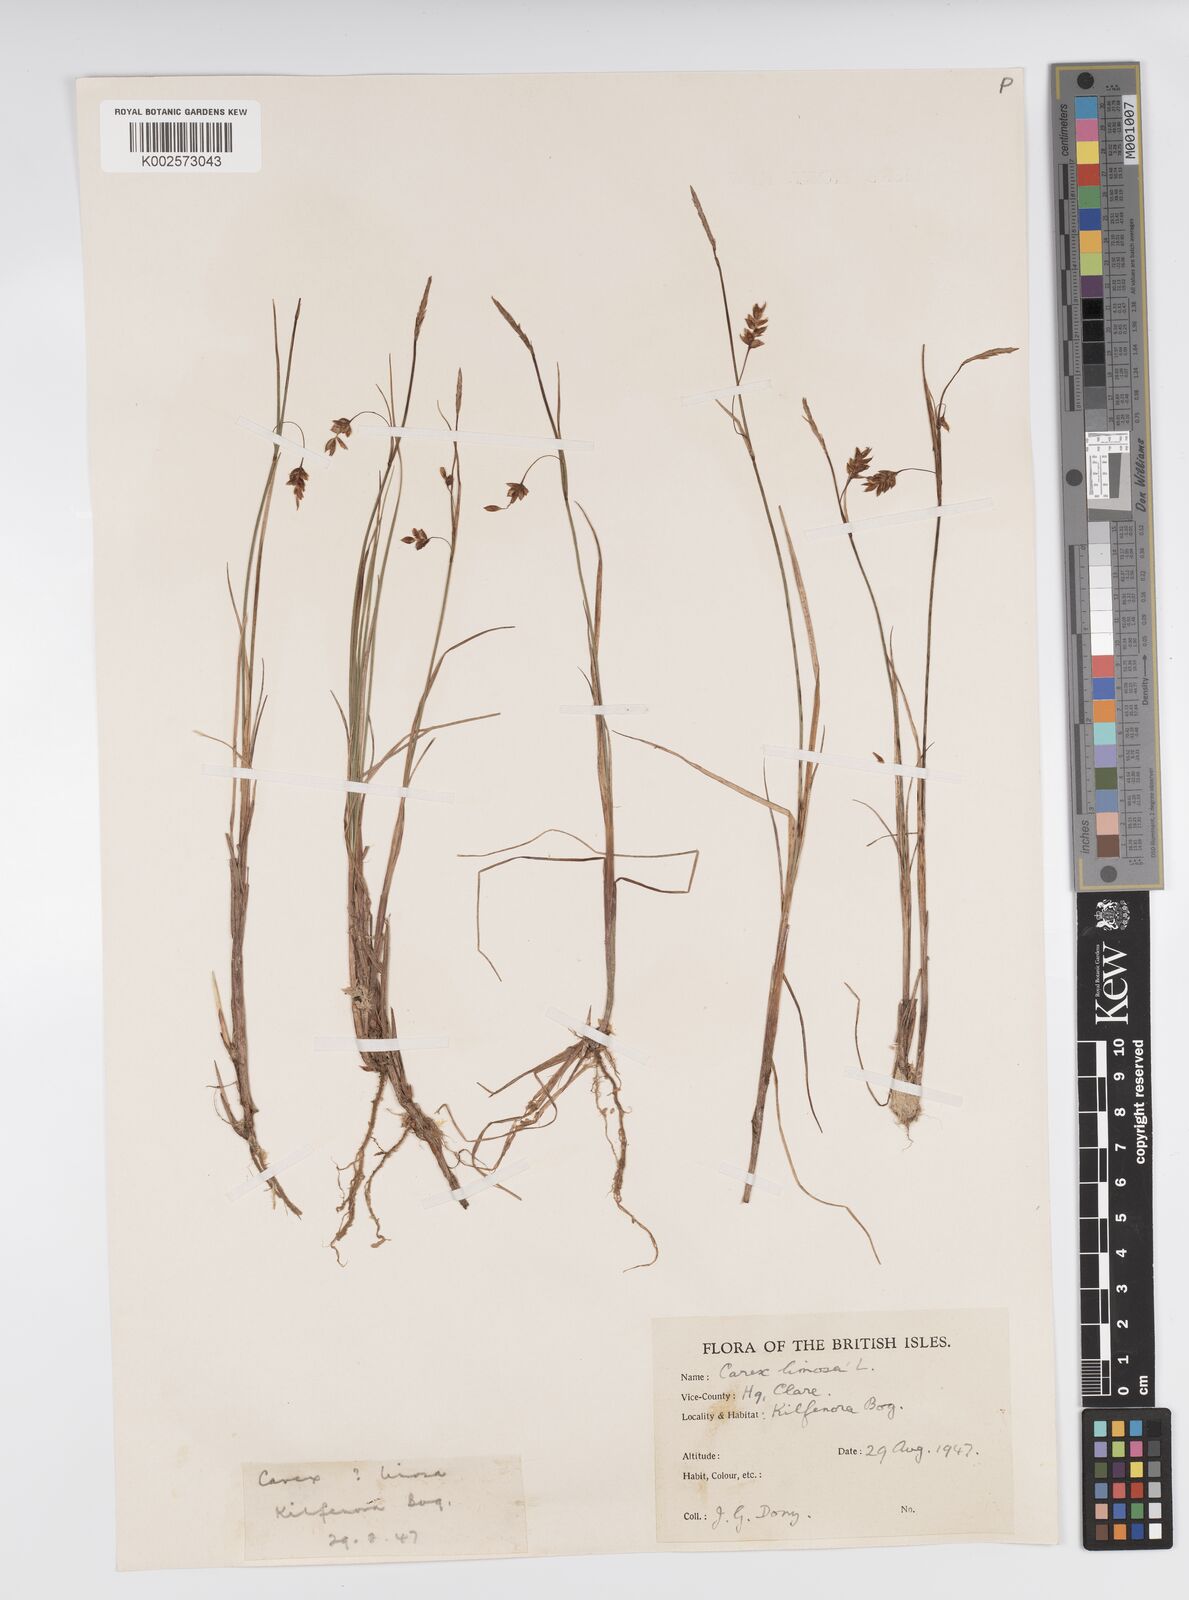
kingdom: Plantae
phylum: Tracheophyta
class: Liliopsida
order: Poales
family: Cyperaceae
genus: Carex
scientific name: Carex limosa
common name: Bog sedge
